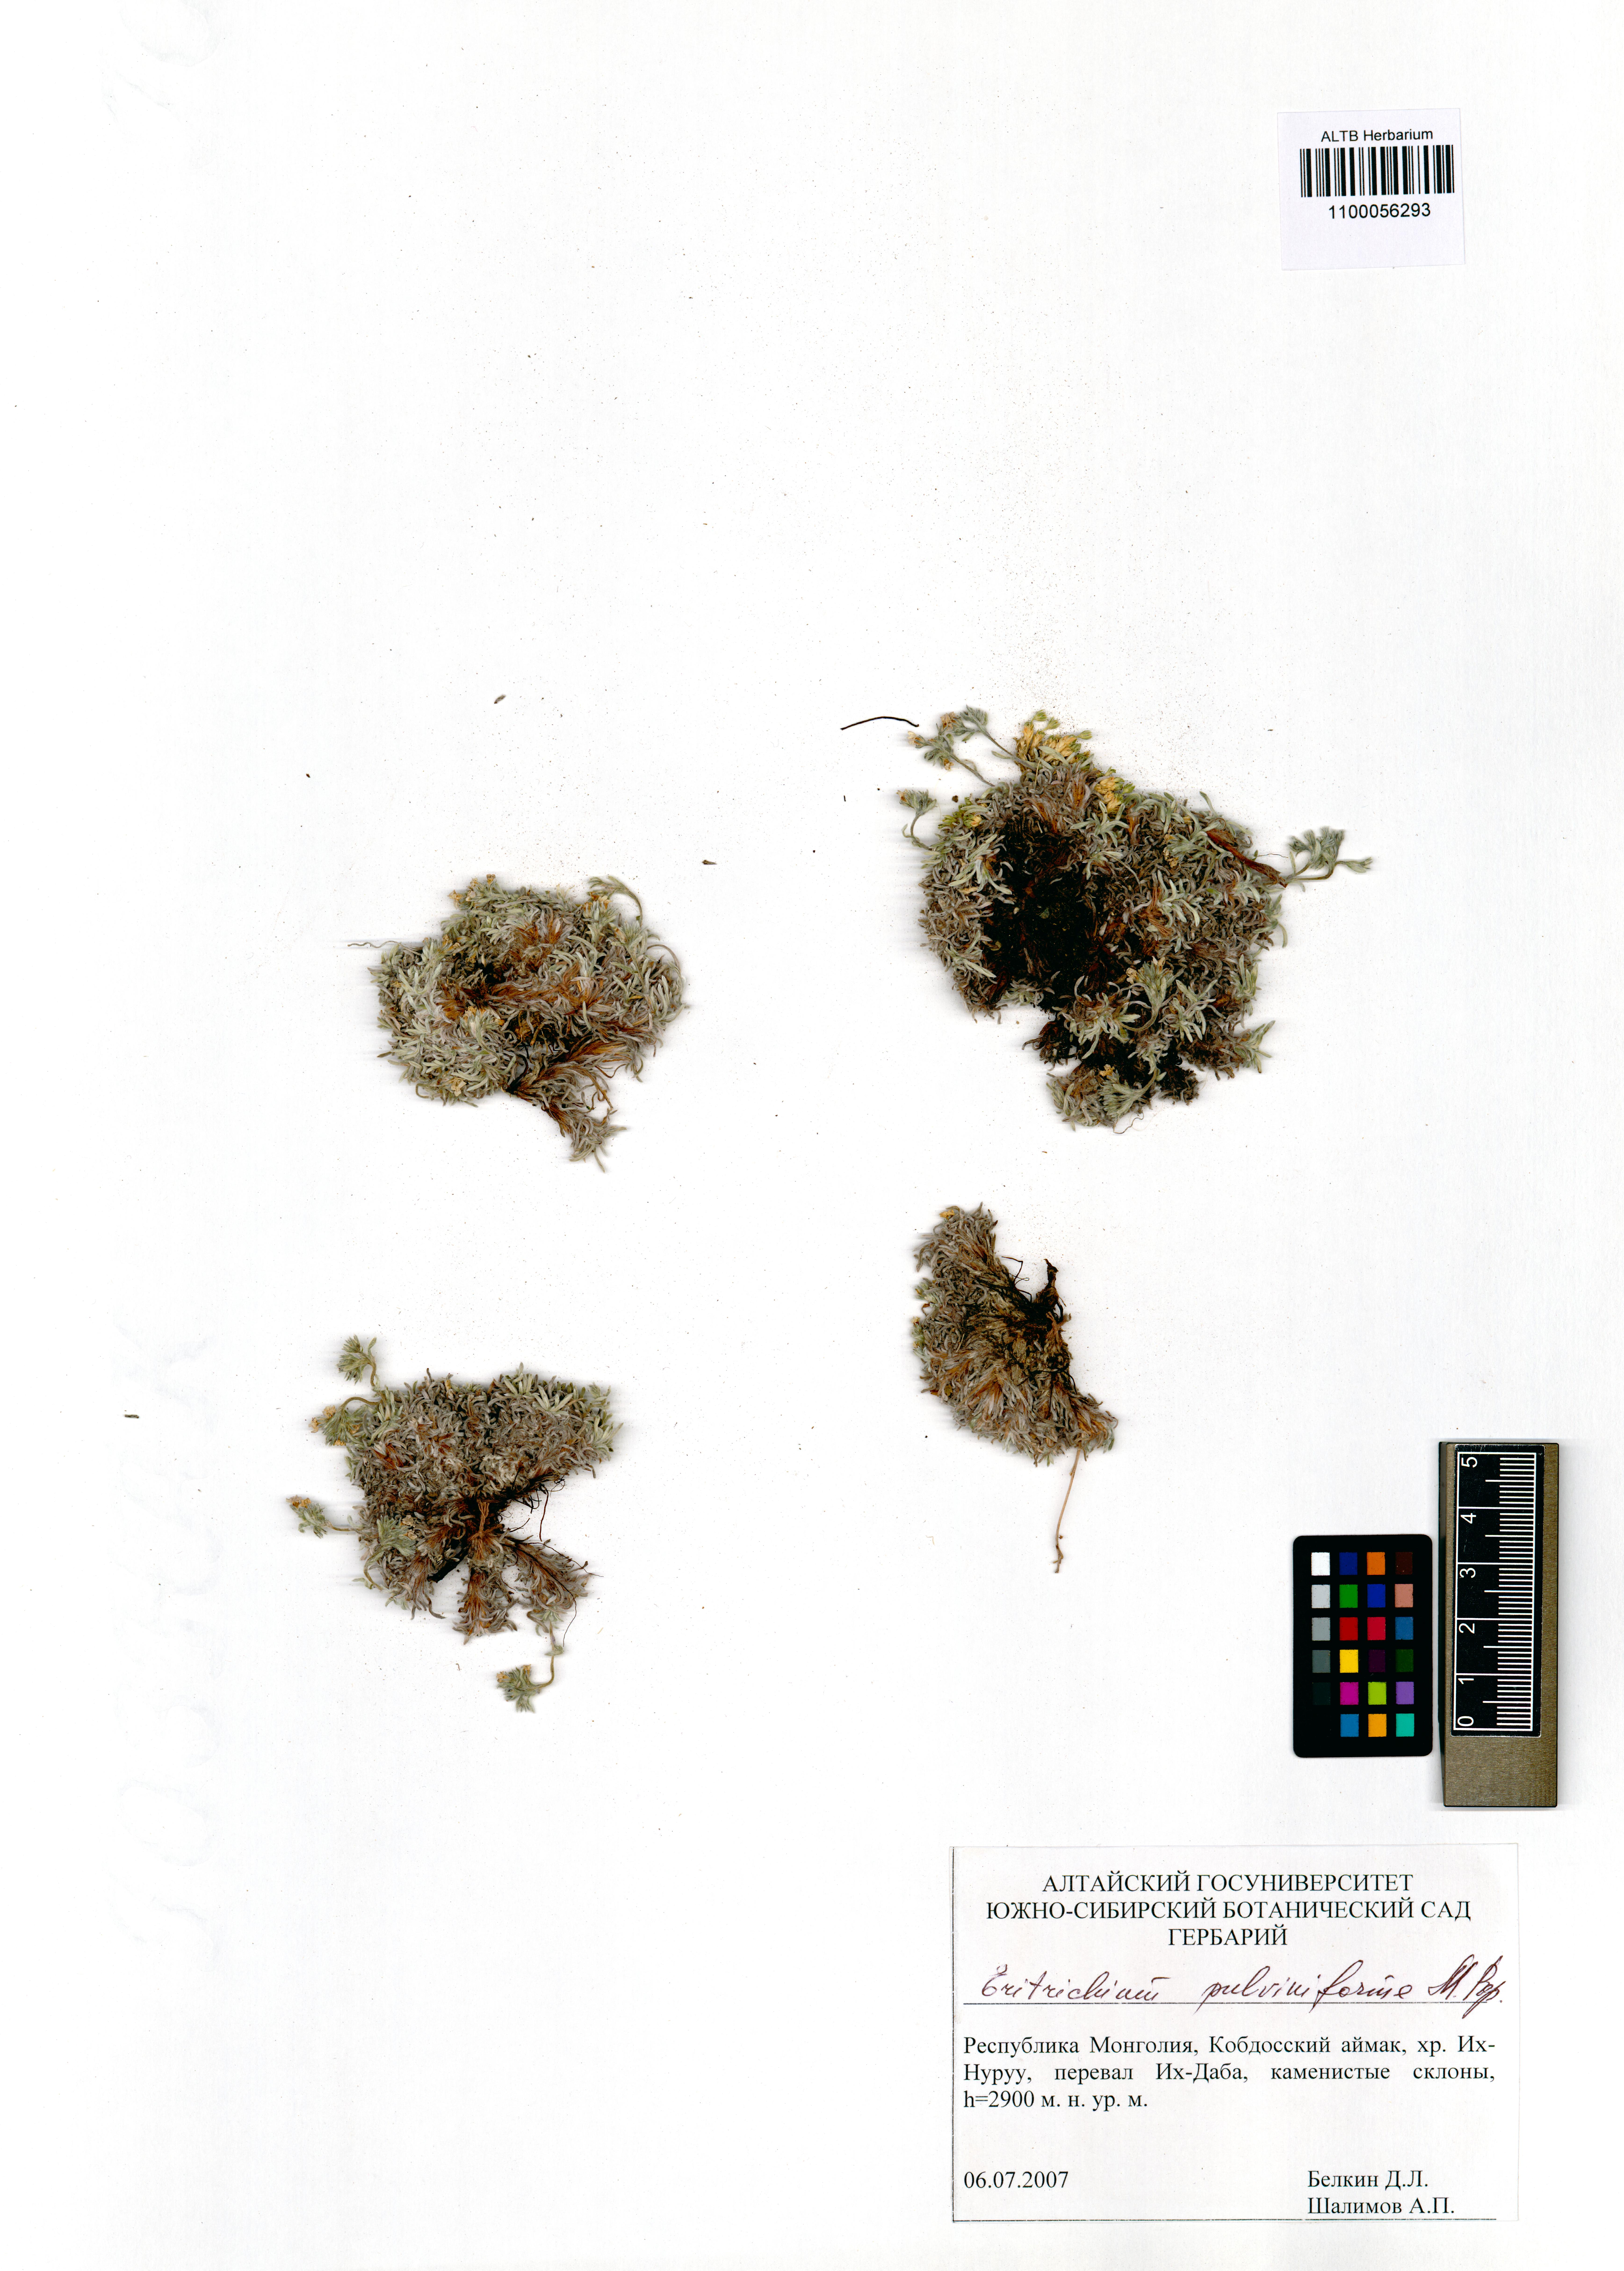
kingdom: Plantae
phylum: Tracheophyta
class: Magnoliopsida
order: Boraginales
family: Boraginaceae
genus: Eritrichium
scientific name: Eritrichium pauciflorum
